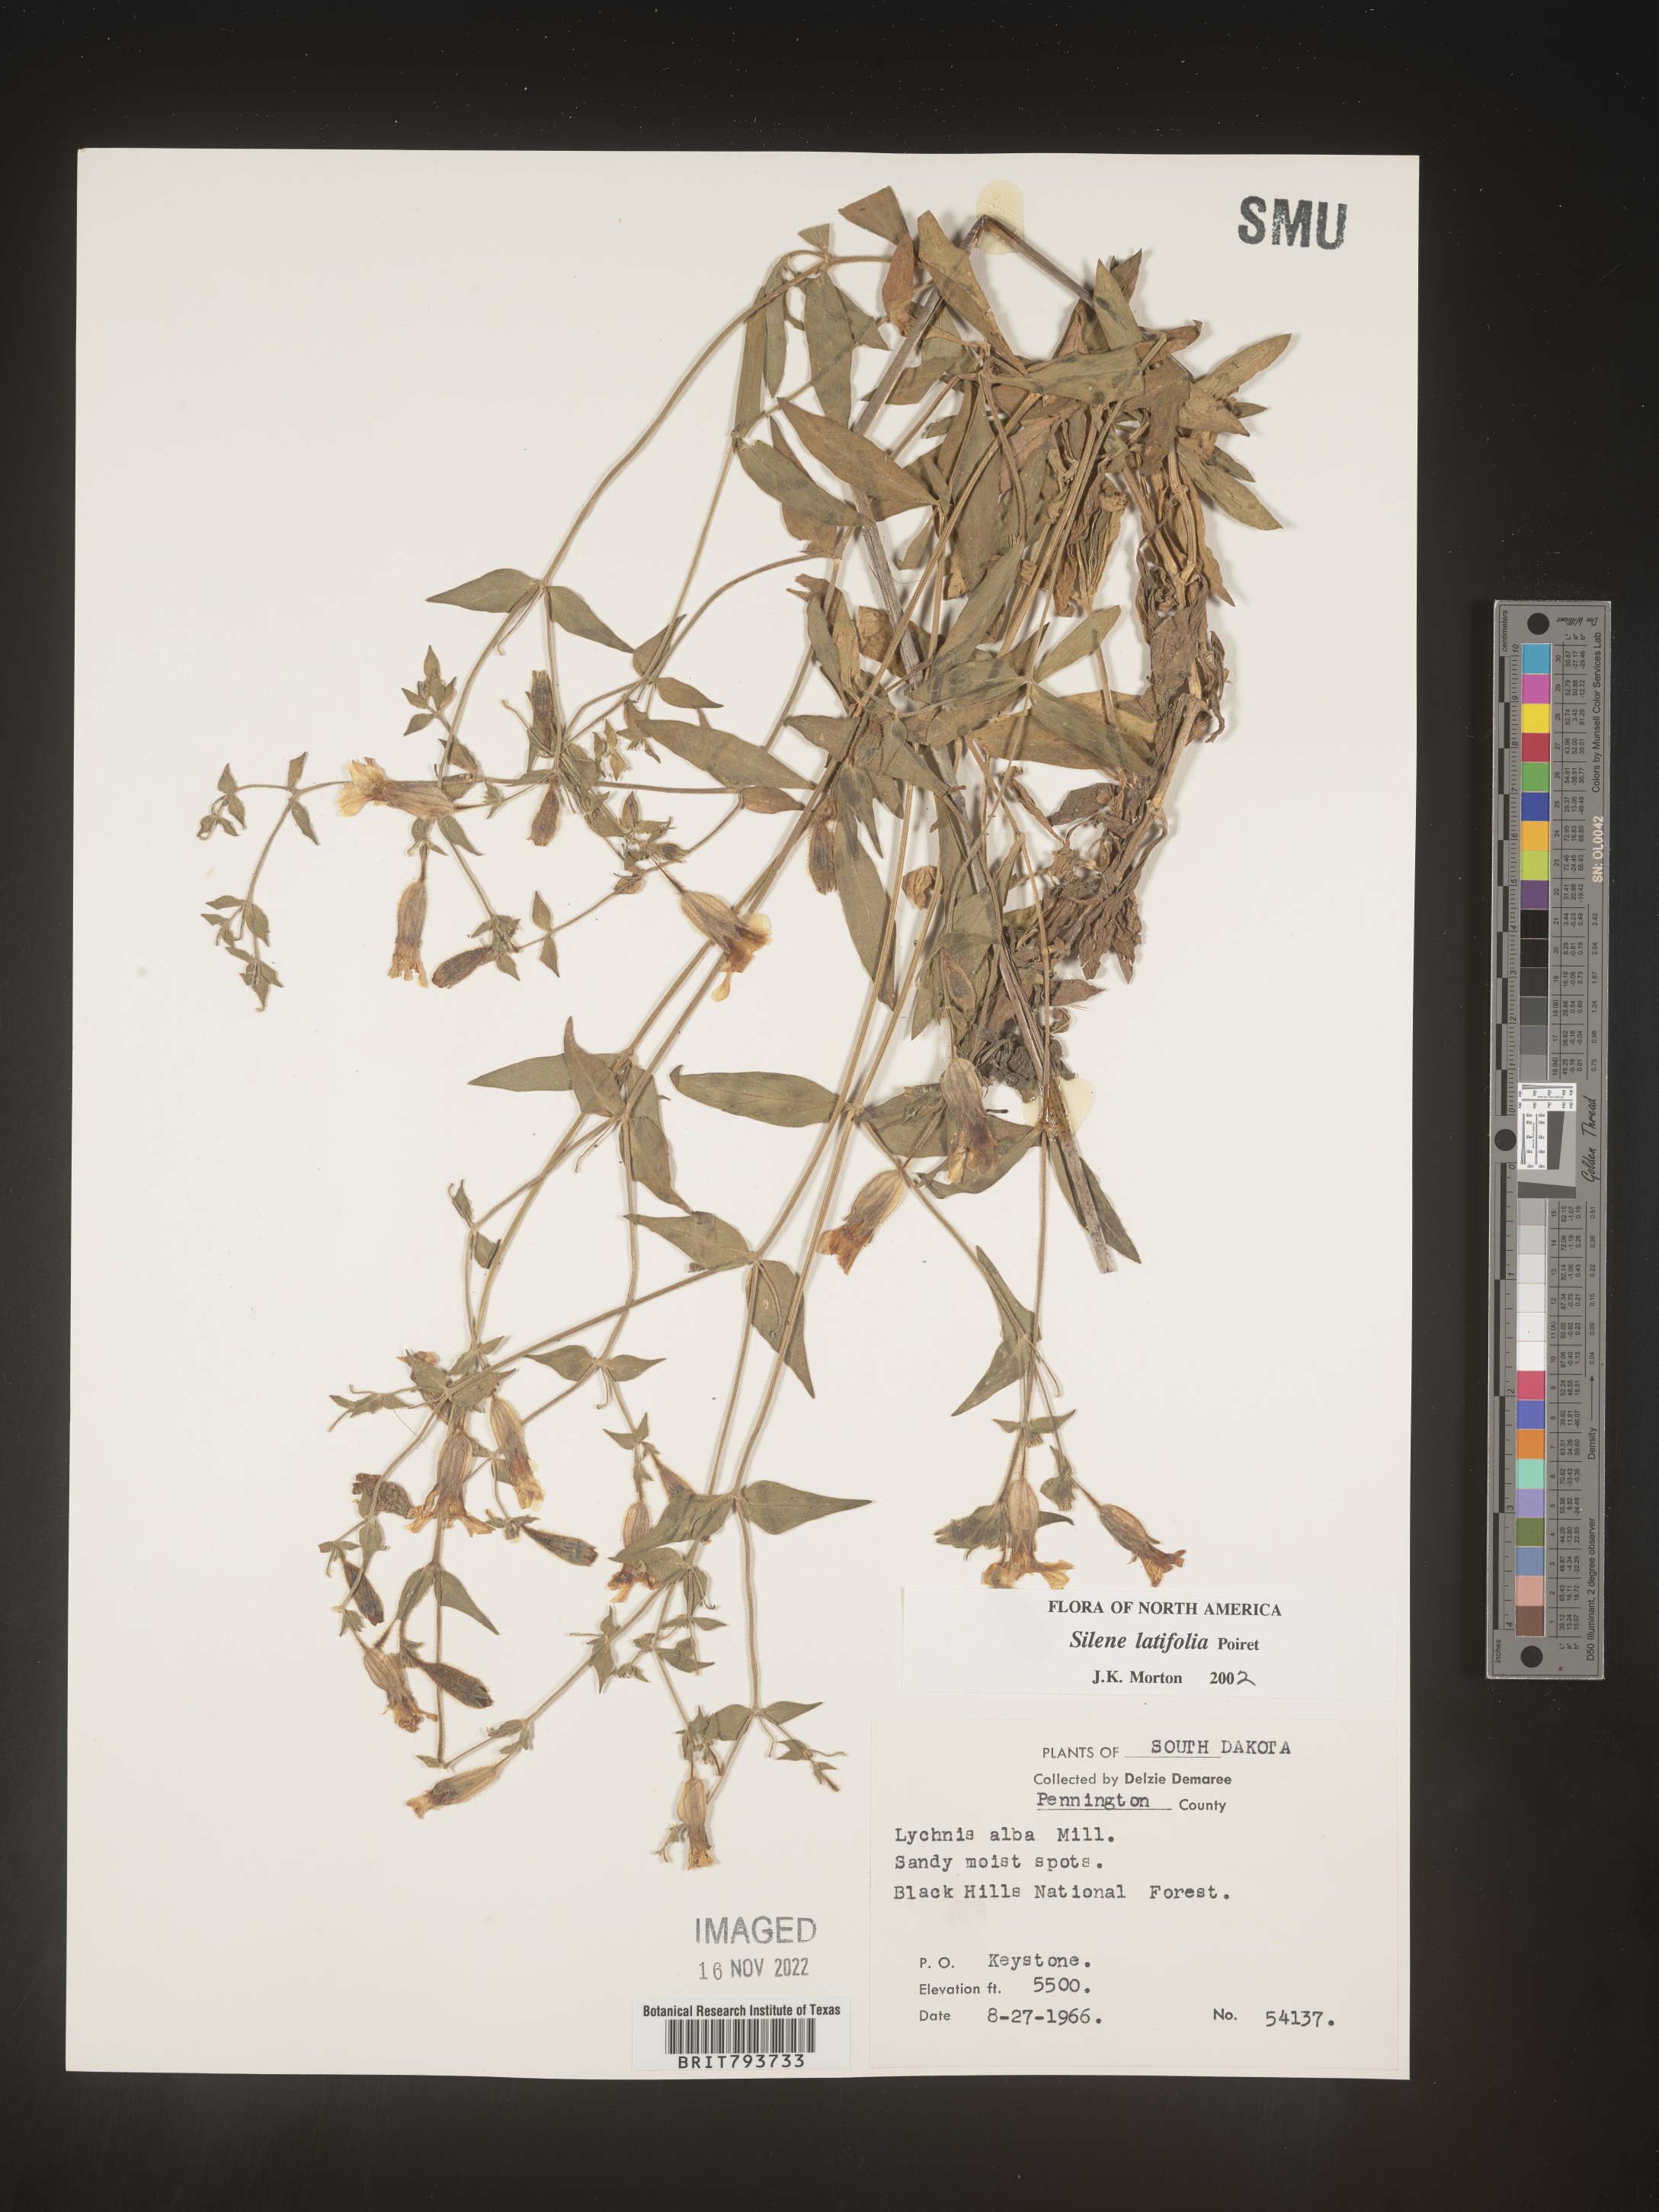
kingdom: Plantae
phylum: Tracheophyta
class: Magnoliopsida
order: Caryophyllales
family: Caryophyllaceae
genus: Silene
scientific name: Silene latifolia
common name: White campion
